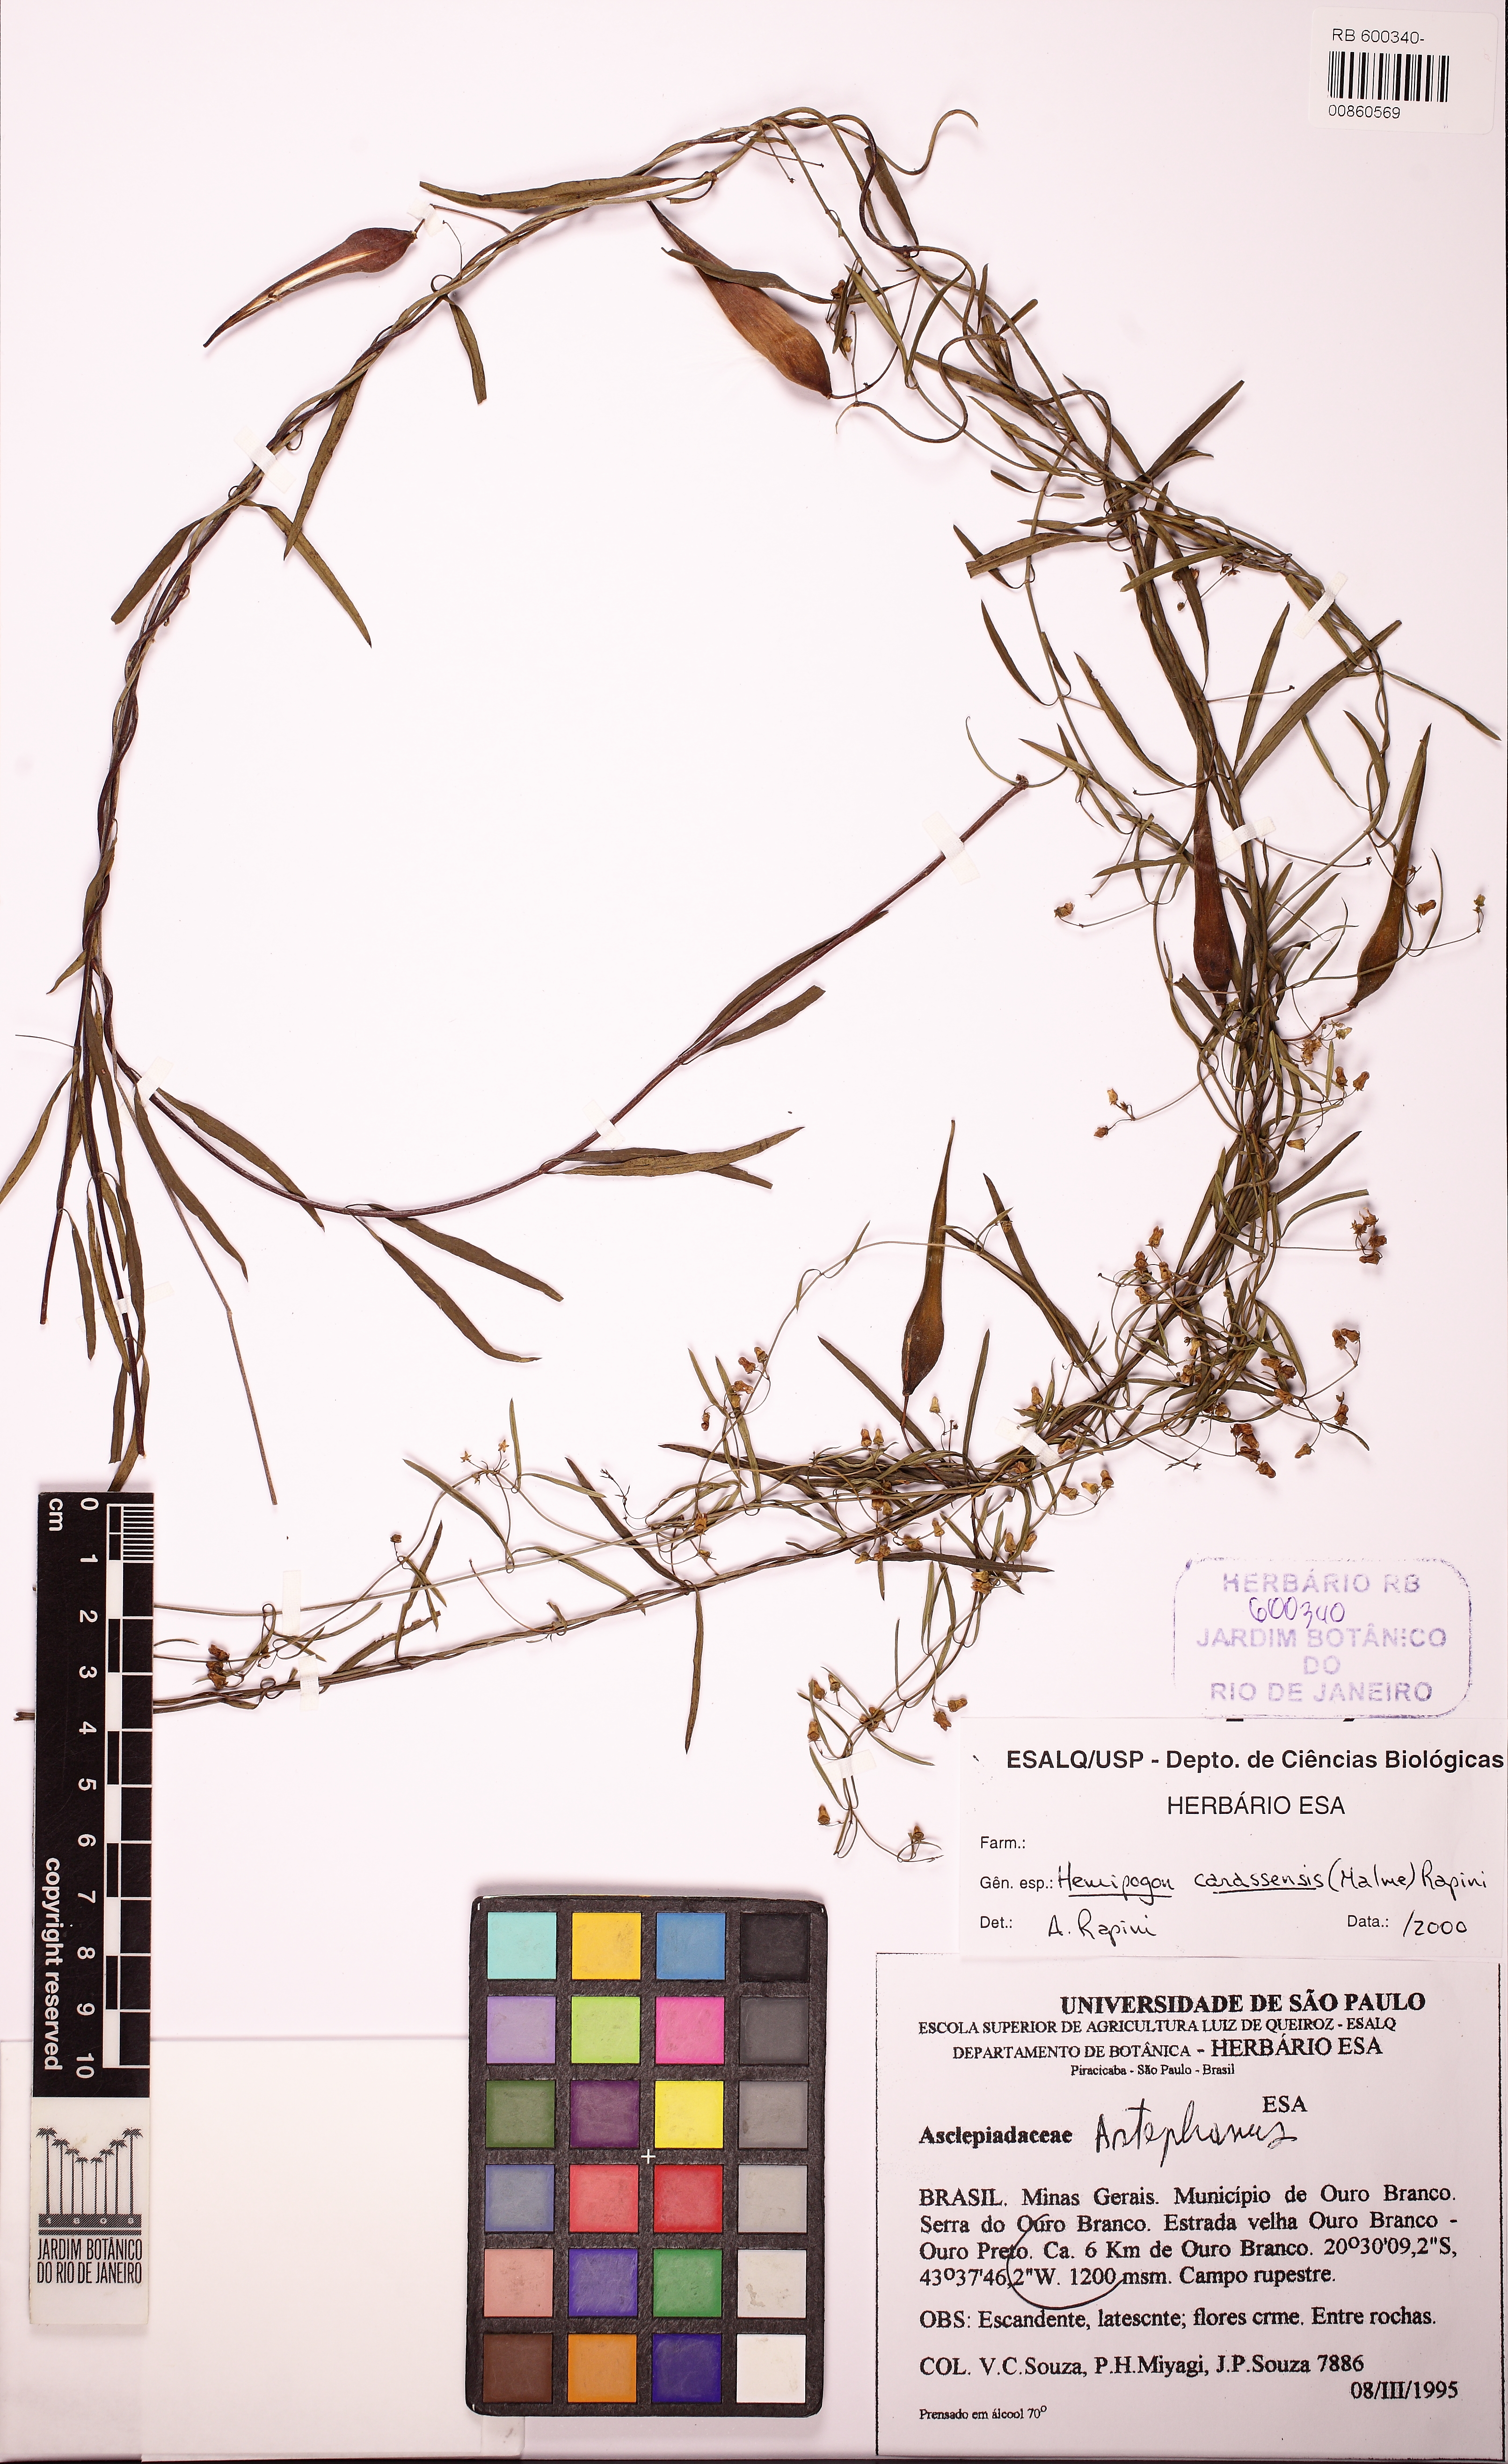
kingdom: Plantae
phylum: Tracheophyta
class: Magnoliopsida
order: Gentianales
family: Apocynaceae
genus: Morilloa
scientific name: Morilloa carassensis
